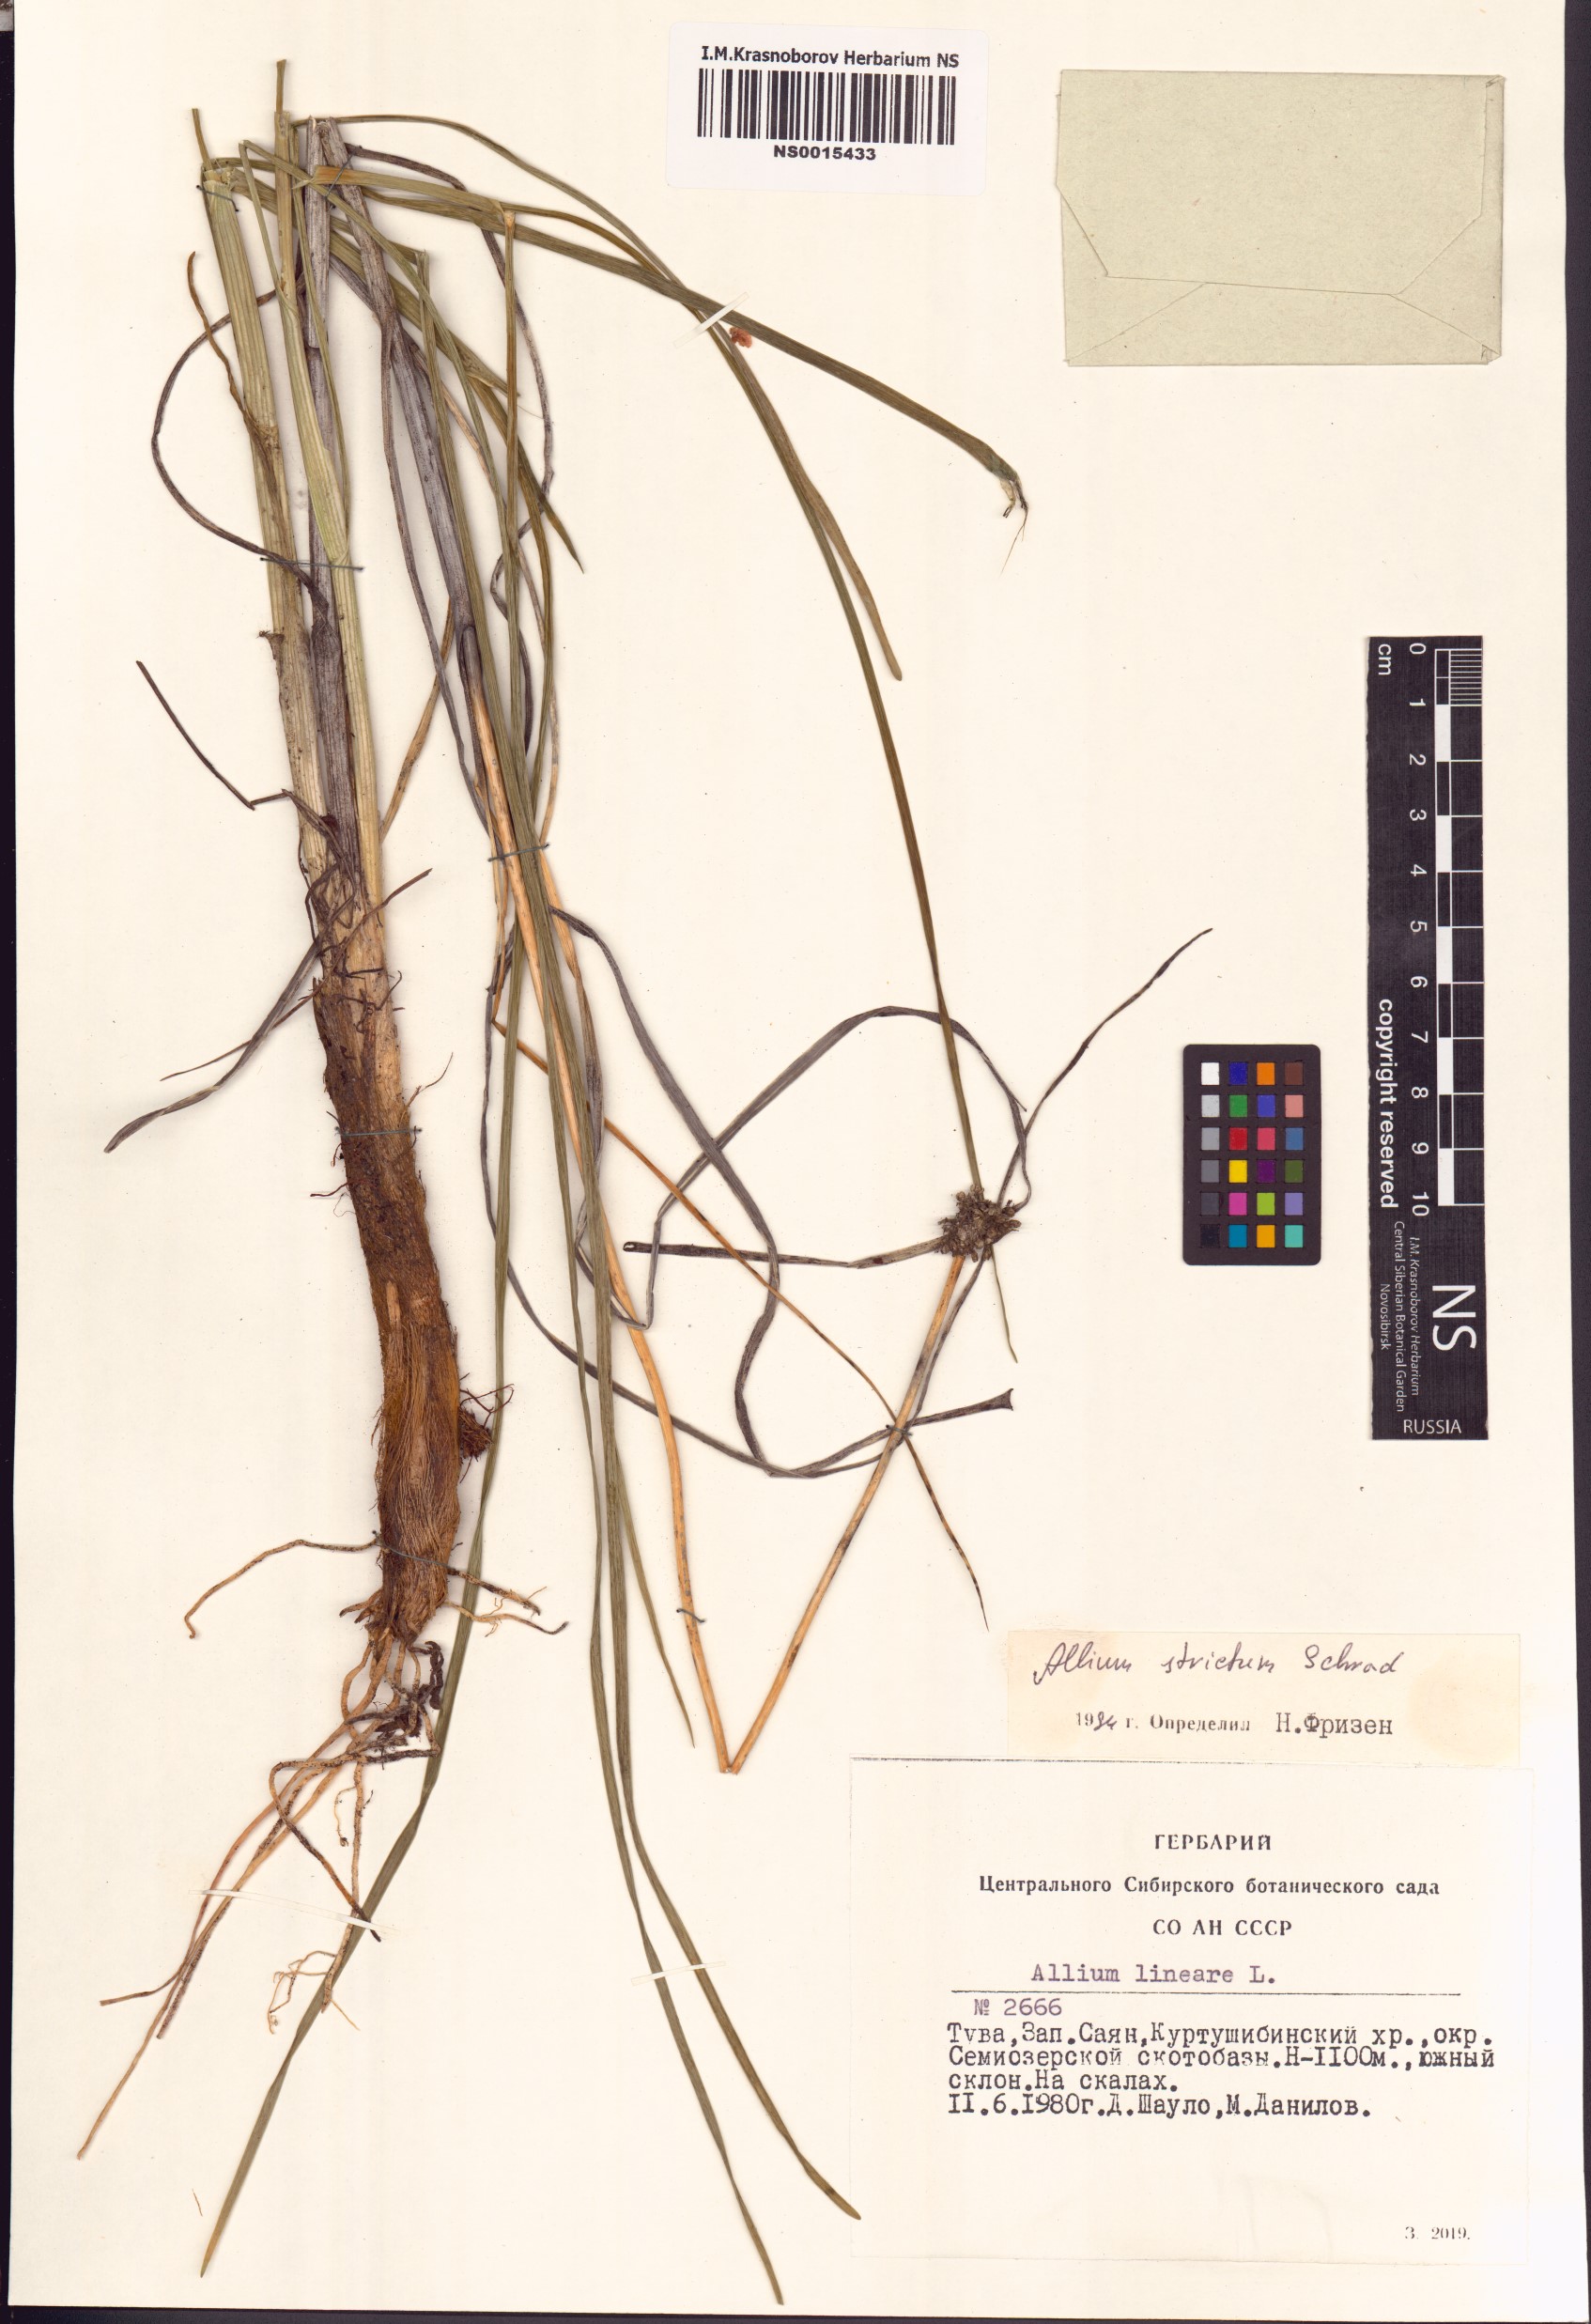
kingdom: Plantae
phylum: Tracheophyta
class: Liliopsida
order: Asparagales
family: Amaryllidaceae
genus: Allium
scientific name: Allium strictum
